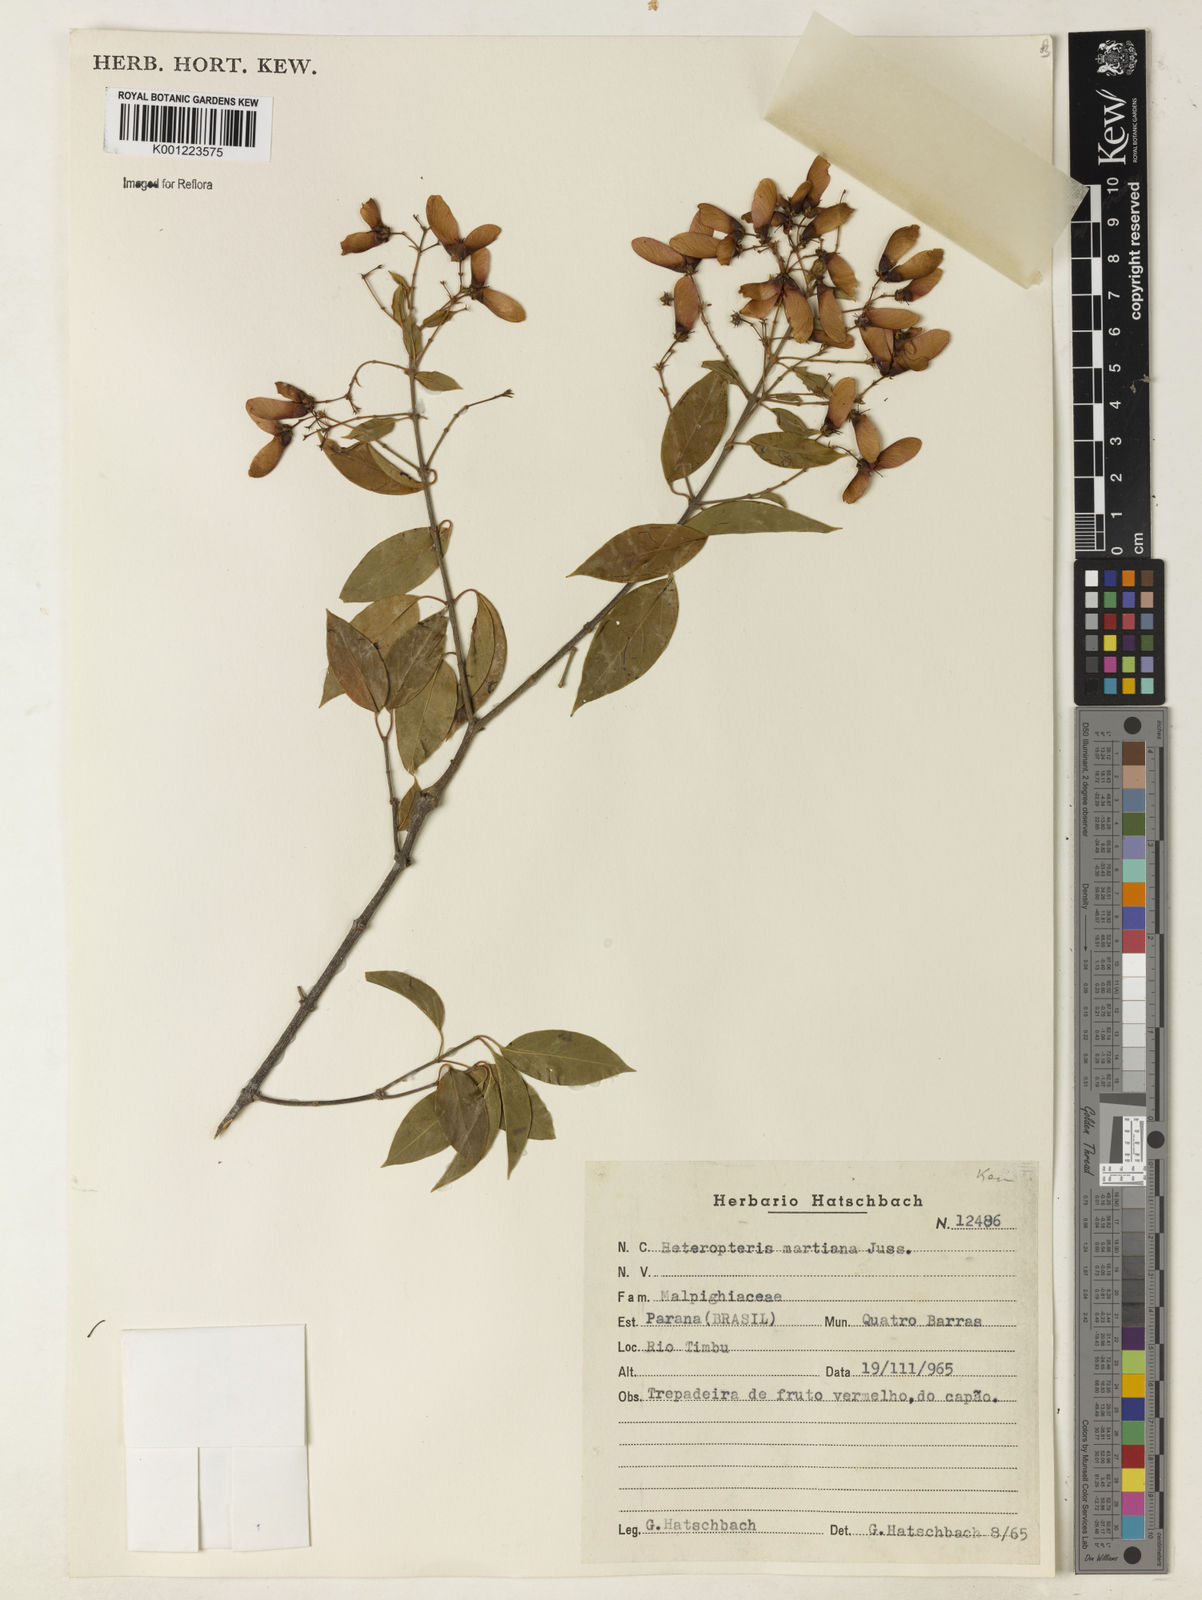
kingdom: Plantae
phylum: Tracheophyta
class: Magnoliopsida
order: Malpighiales
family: Malpighiaceae
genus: Heteropterys
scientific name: Heteropterys syringifolia
